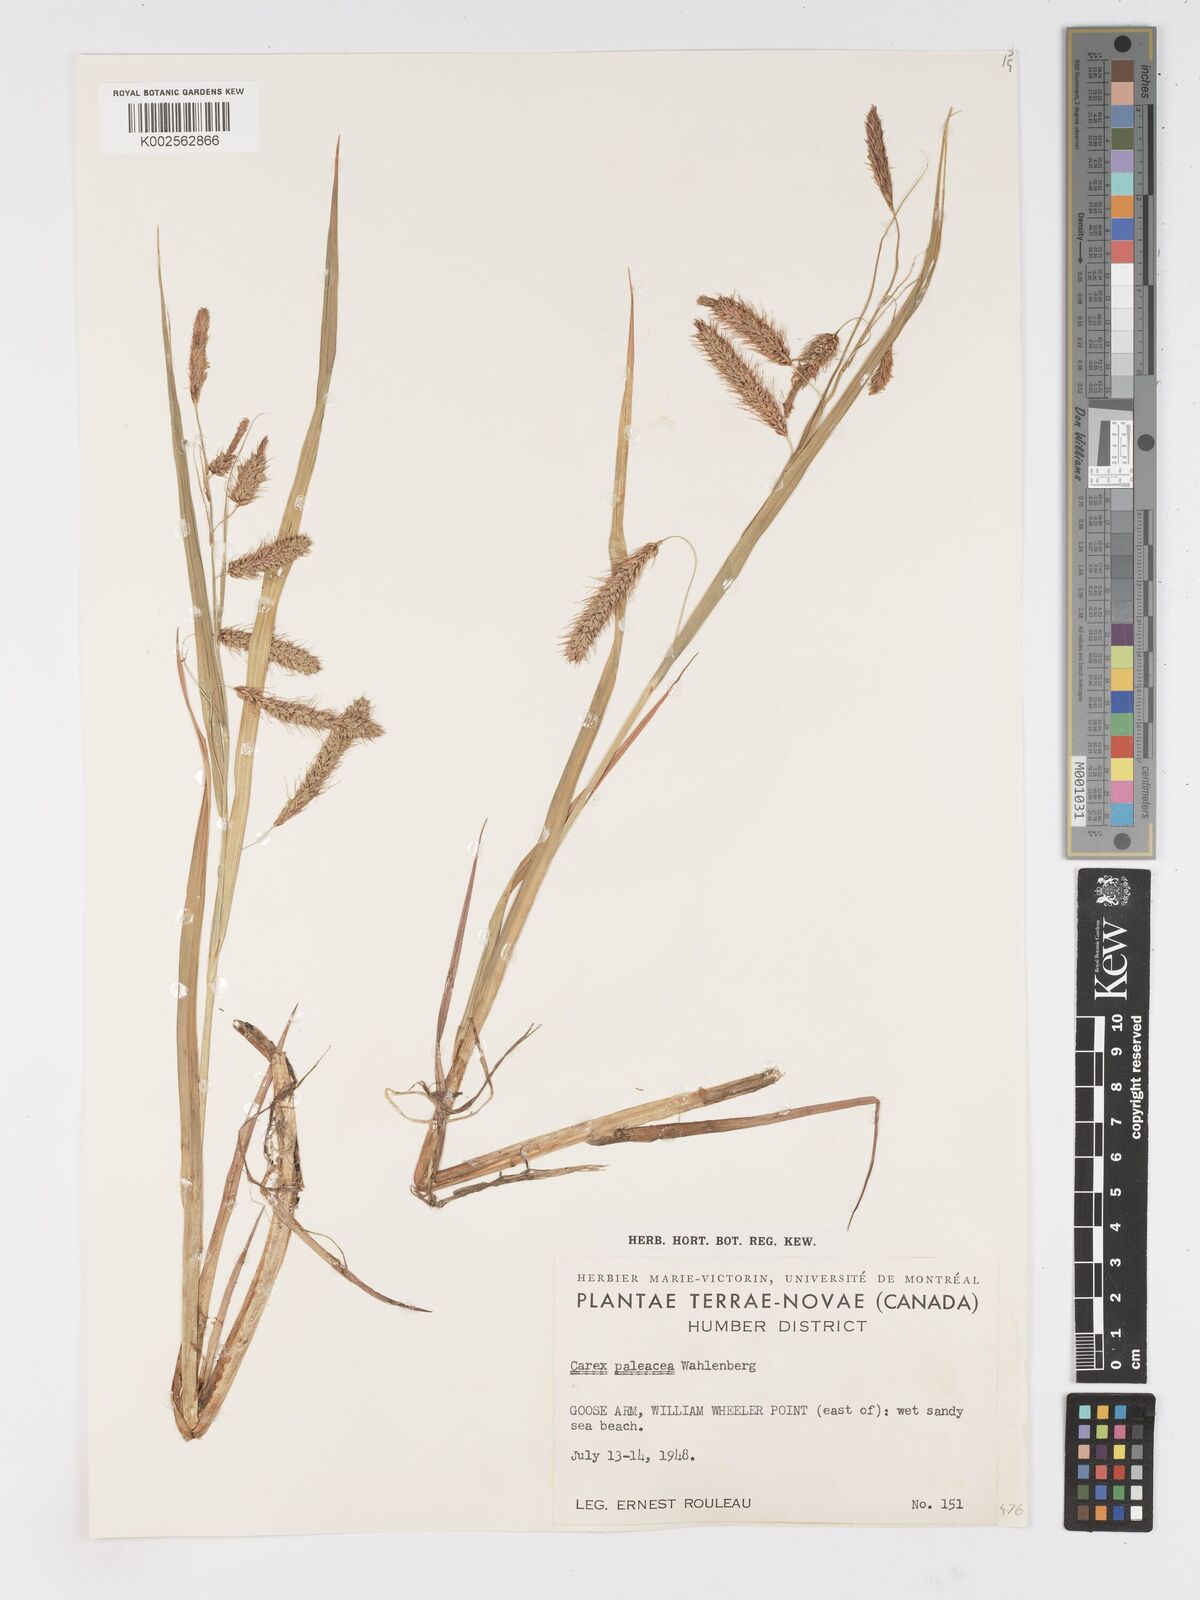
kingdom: Plantae
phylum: Tracheophyta
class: Liliopsida
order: Poales
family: Cyperaceae
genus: Carex
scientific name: Carex paleacea
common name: Chaffy sedge
